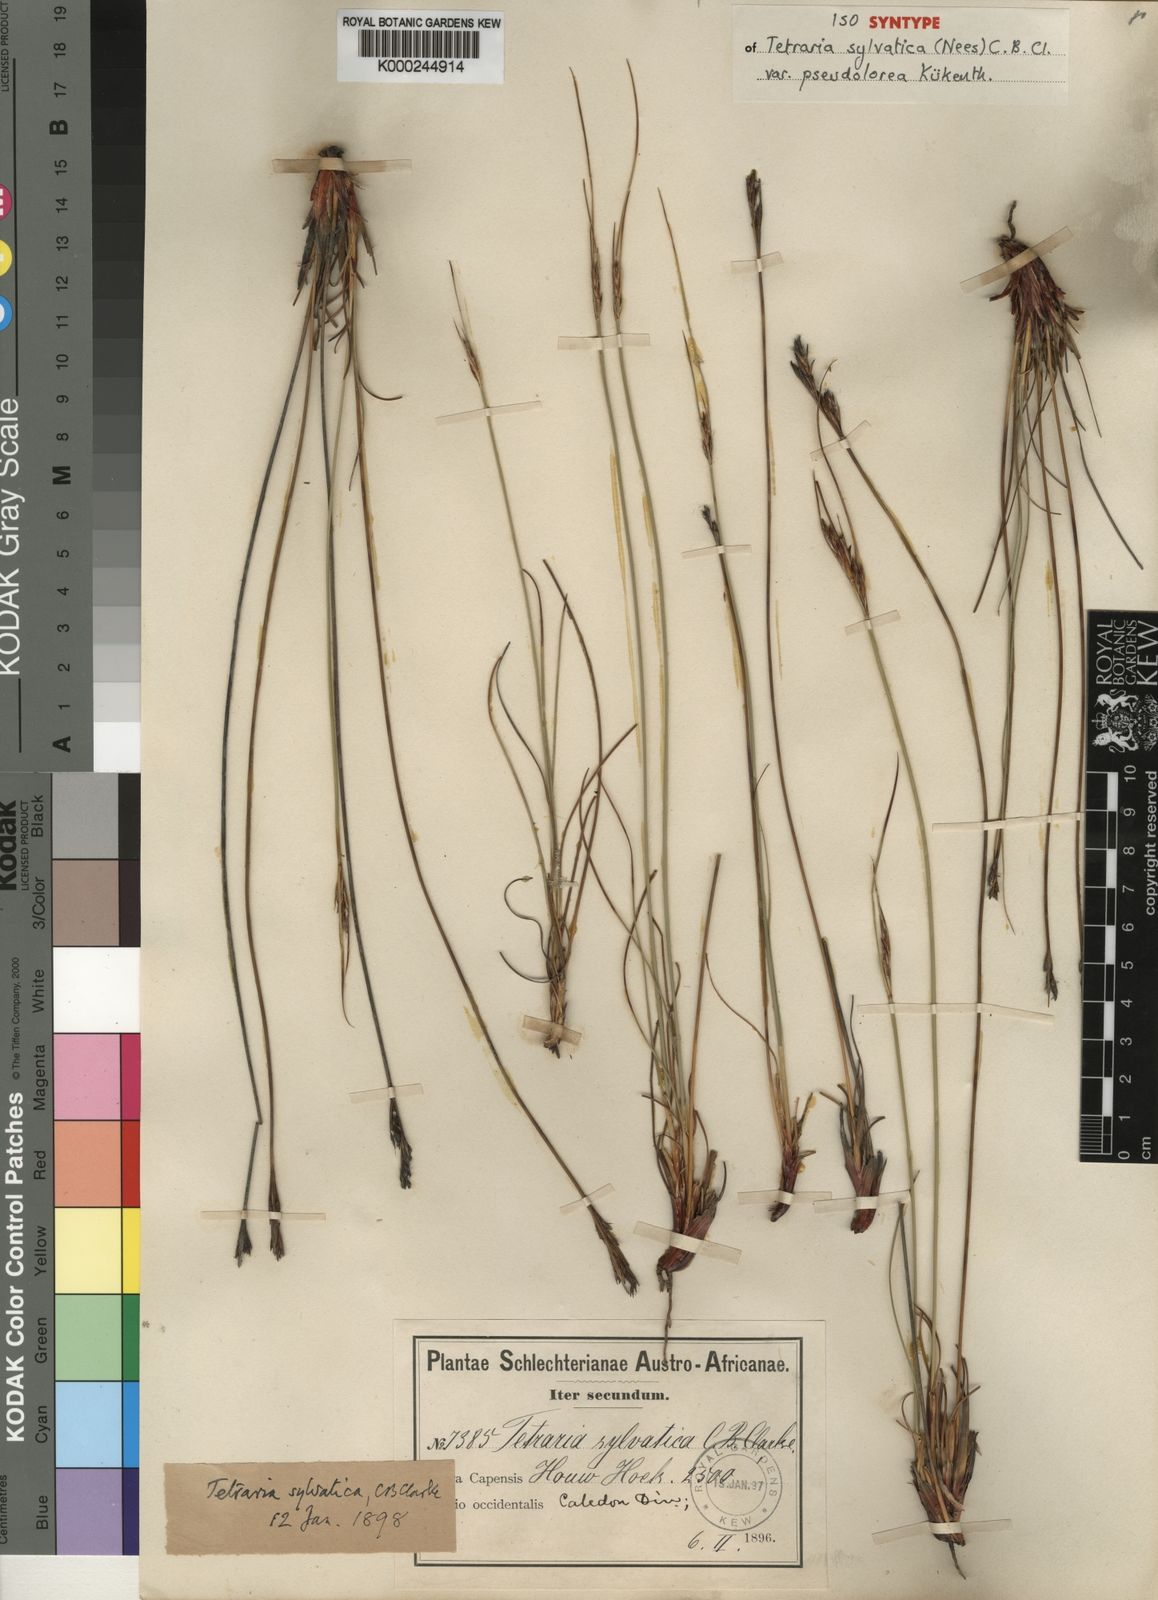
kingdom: Plantae
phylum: Tracheophyta
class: Liliopsida
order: Poales
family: Cyperaceae
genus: Schoenus
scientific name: Schoenus auritus
